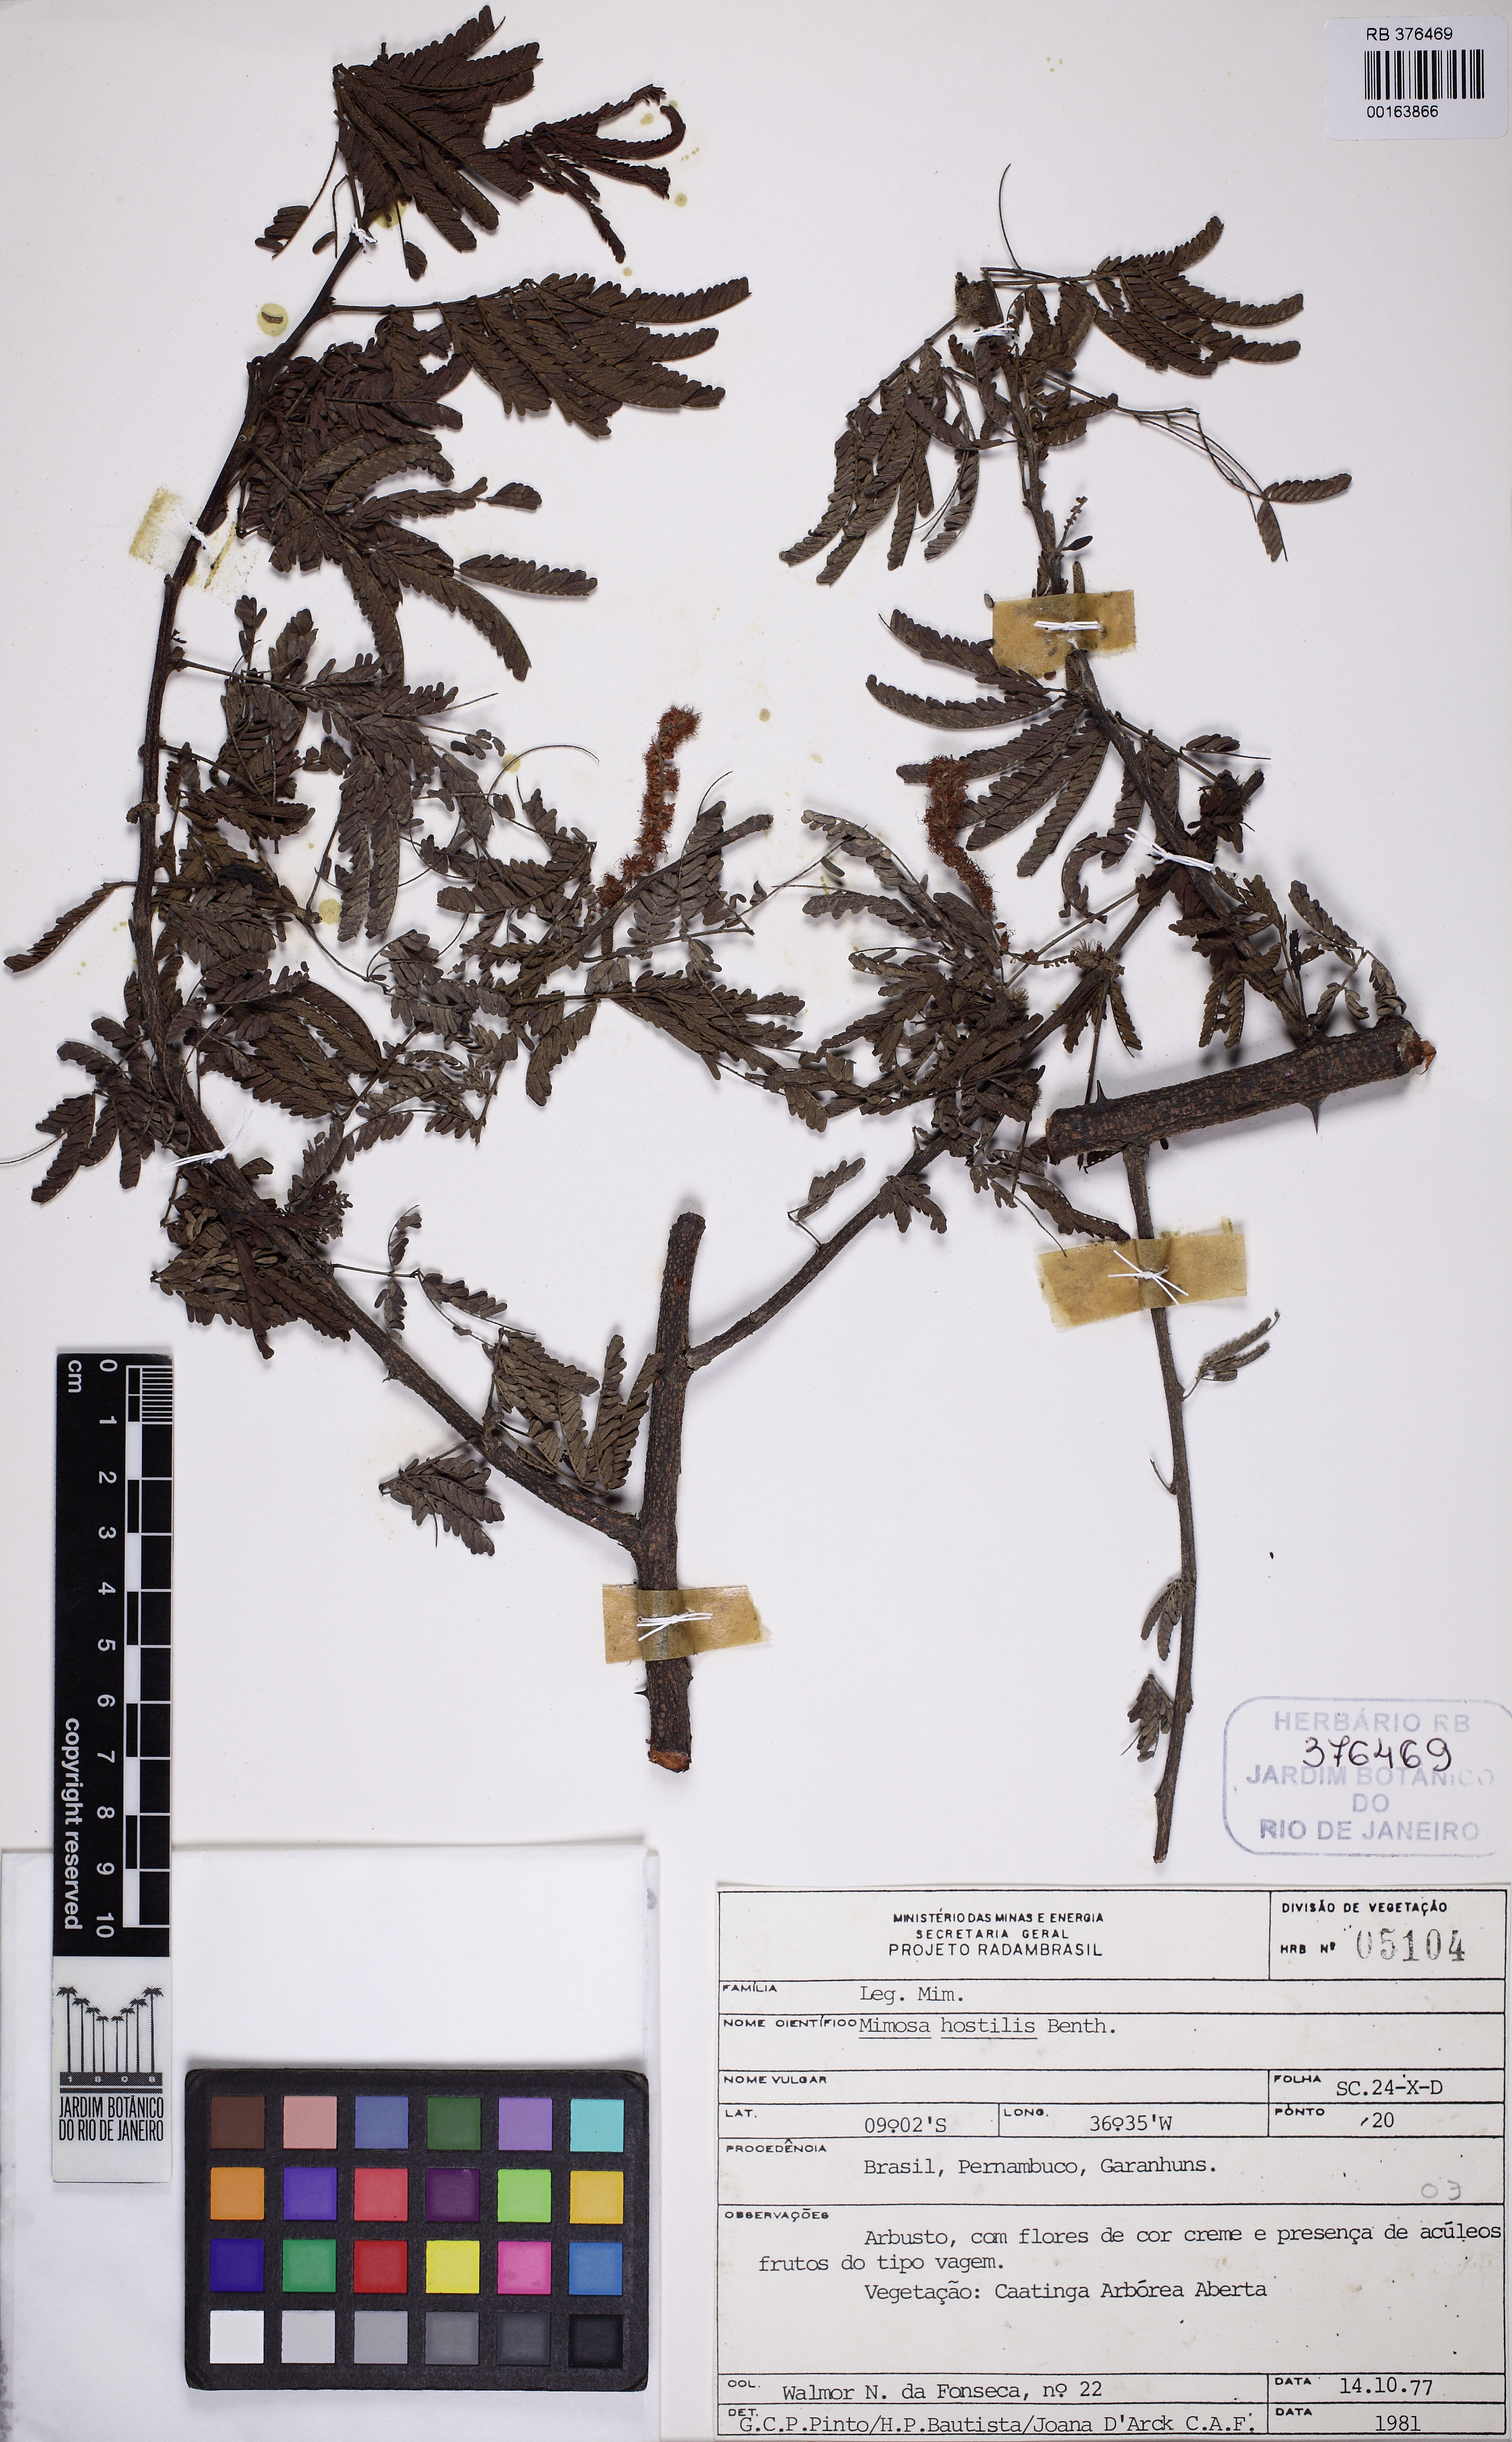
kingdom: Plantae
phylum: Tracheophyta
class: Magnoliopsida
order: Fabales
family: Fabaceae
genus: Mimosa
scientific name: Mimosa tenuiflora
